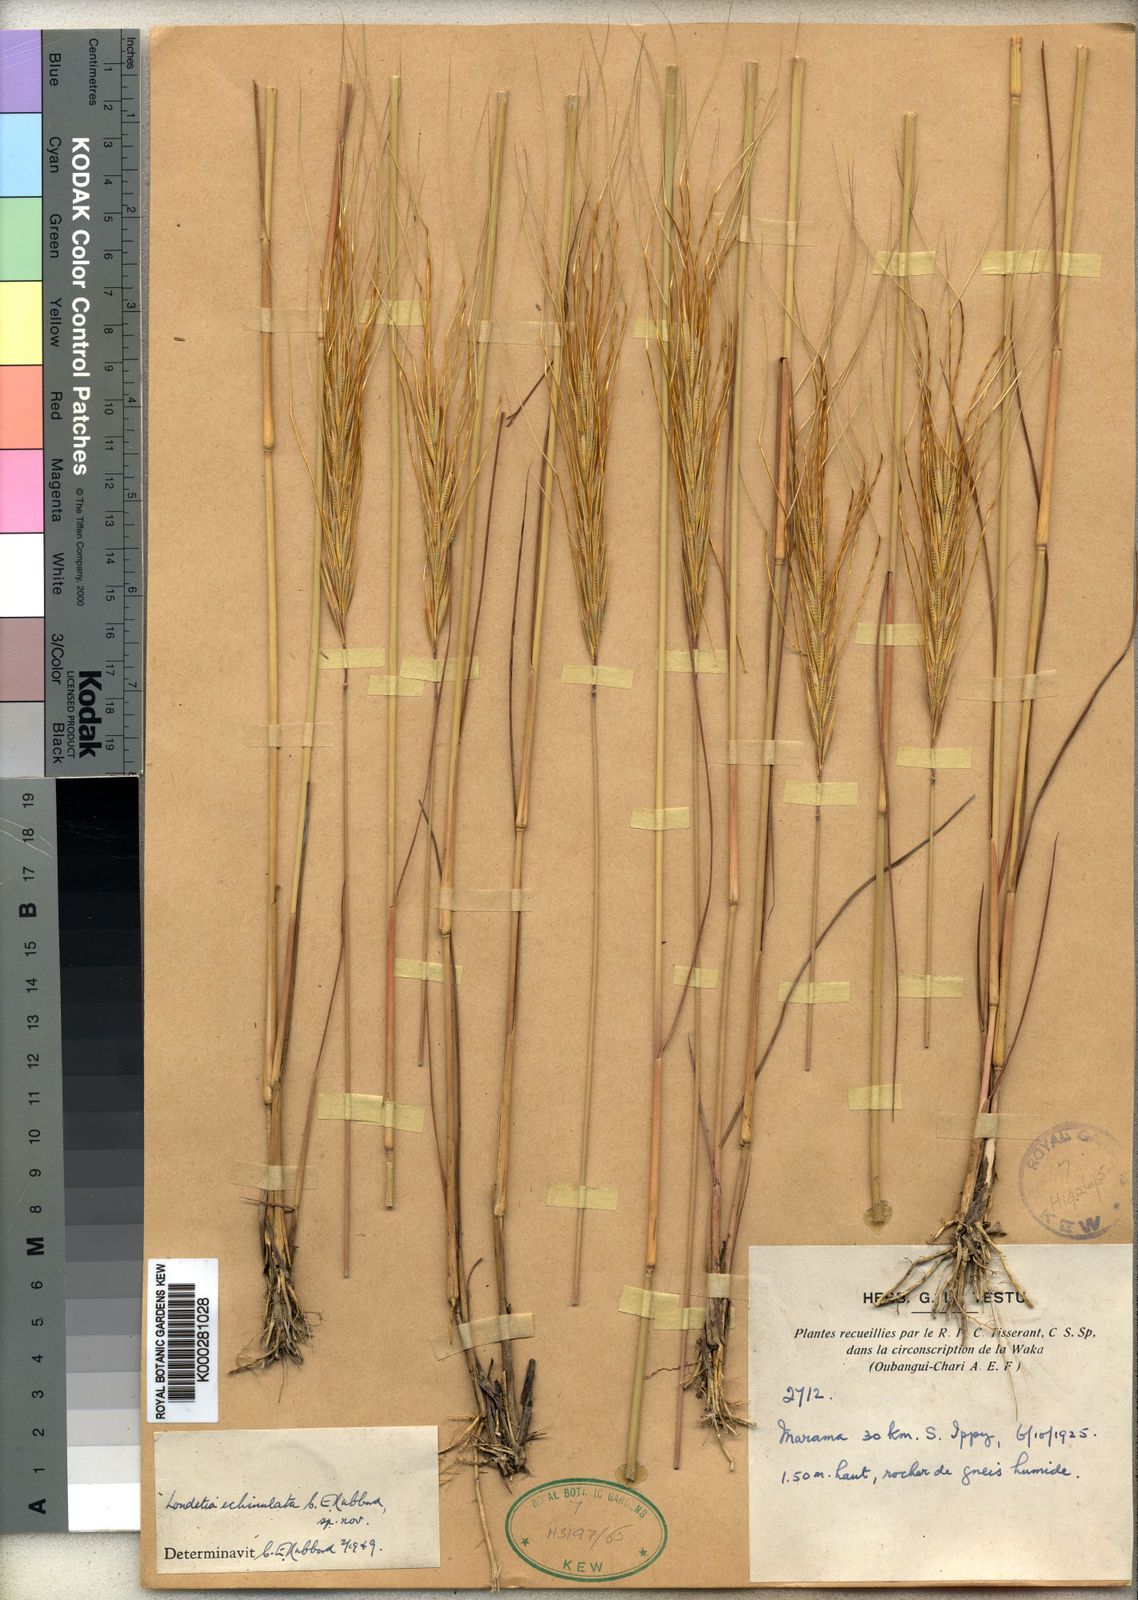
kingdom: Plantae
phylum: Tracheophyta
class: Liliopsida
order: Poales
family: Poaceae
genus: Loudetia
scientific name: Loudetia echinulata
